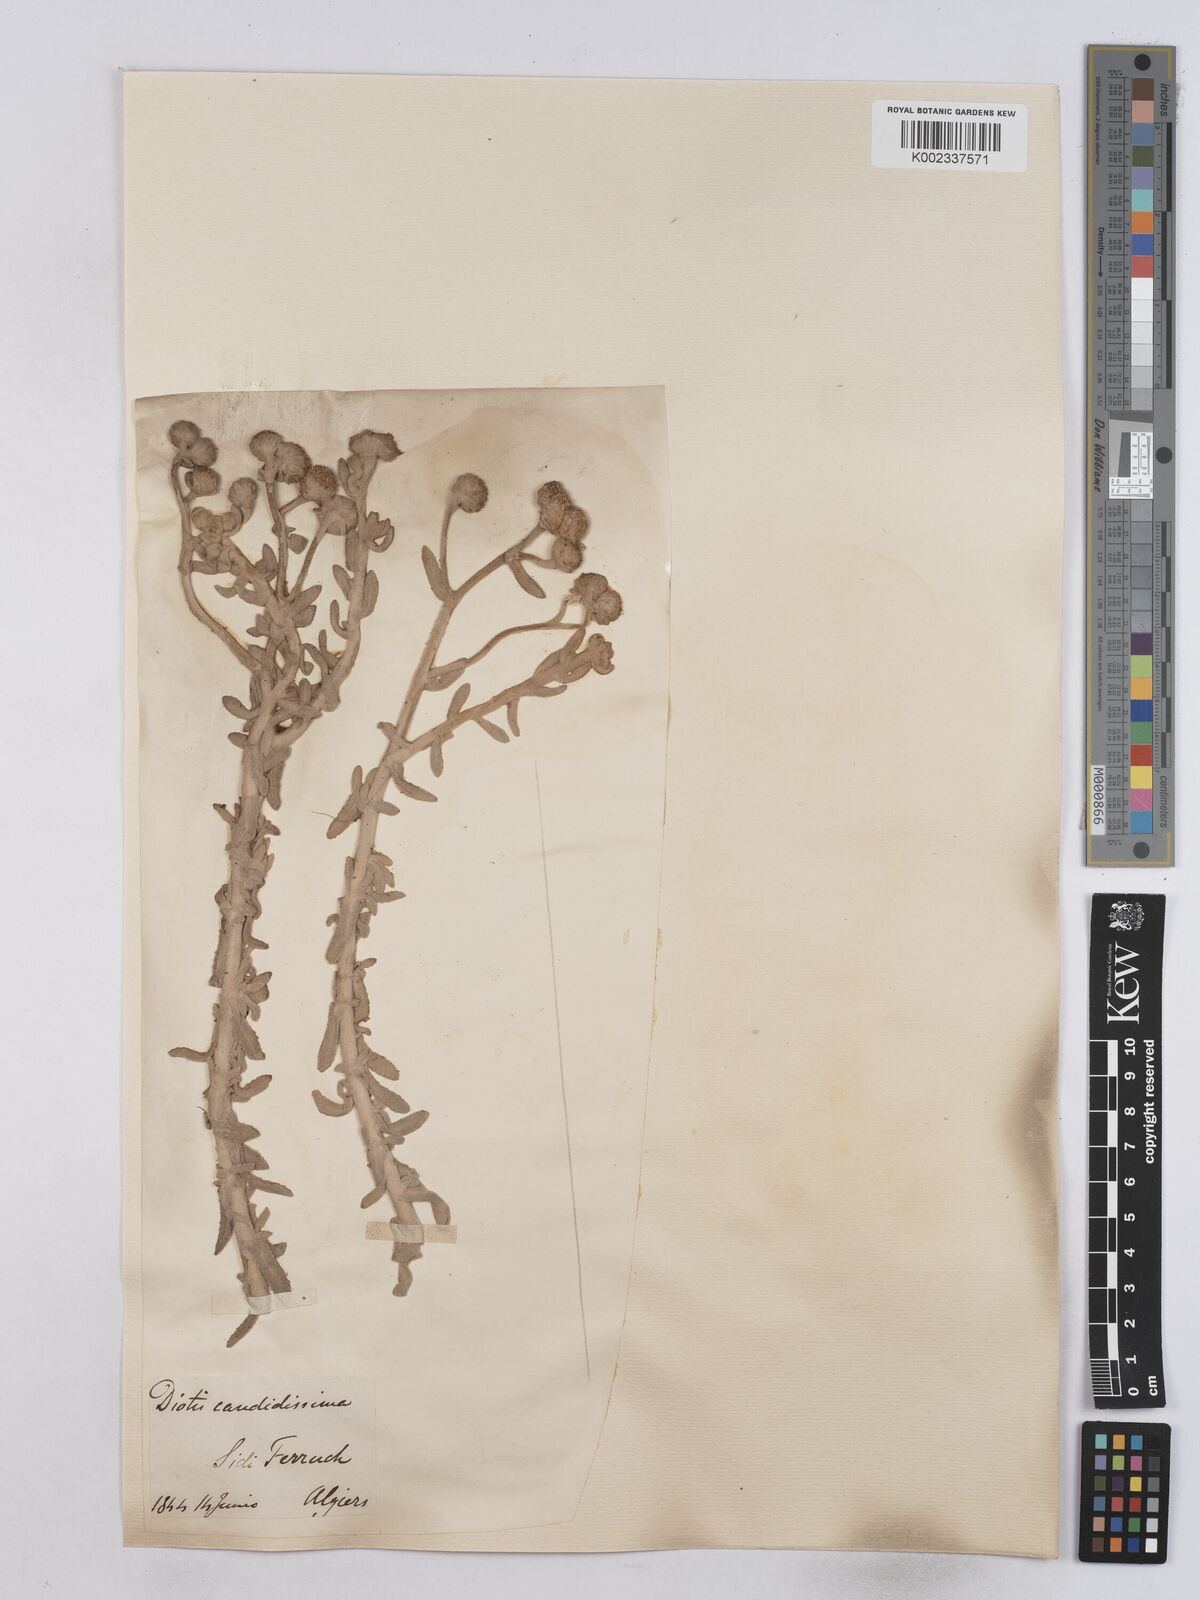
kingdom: Plantae
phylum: Tracheophyta
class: Magnoliopsida
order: Asterales
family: Asteraceae
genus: Achillea
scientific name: Achillea maritima
